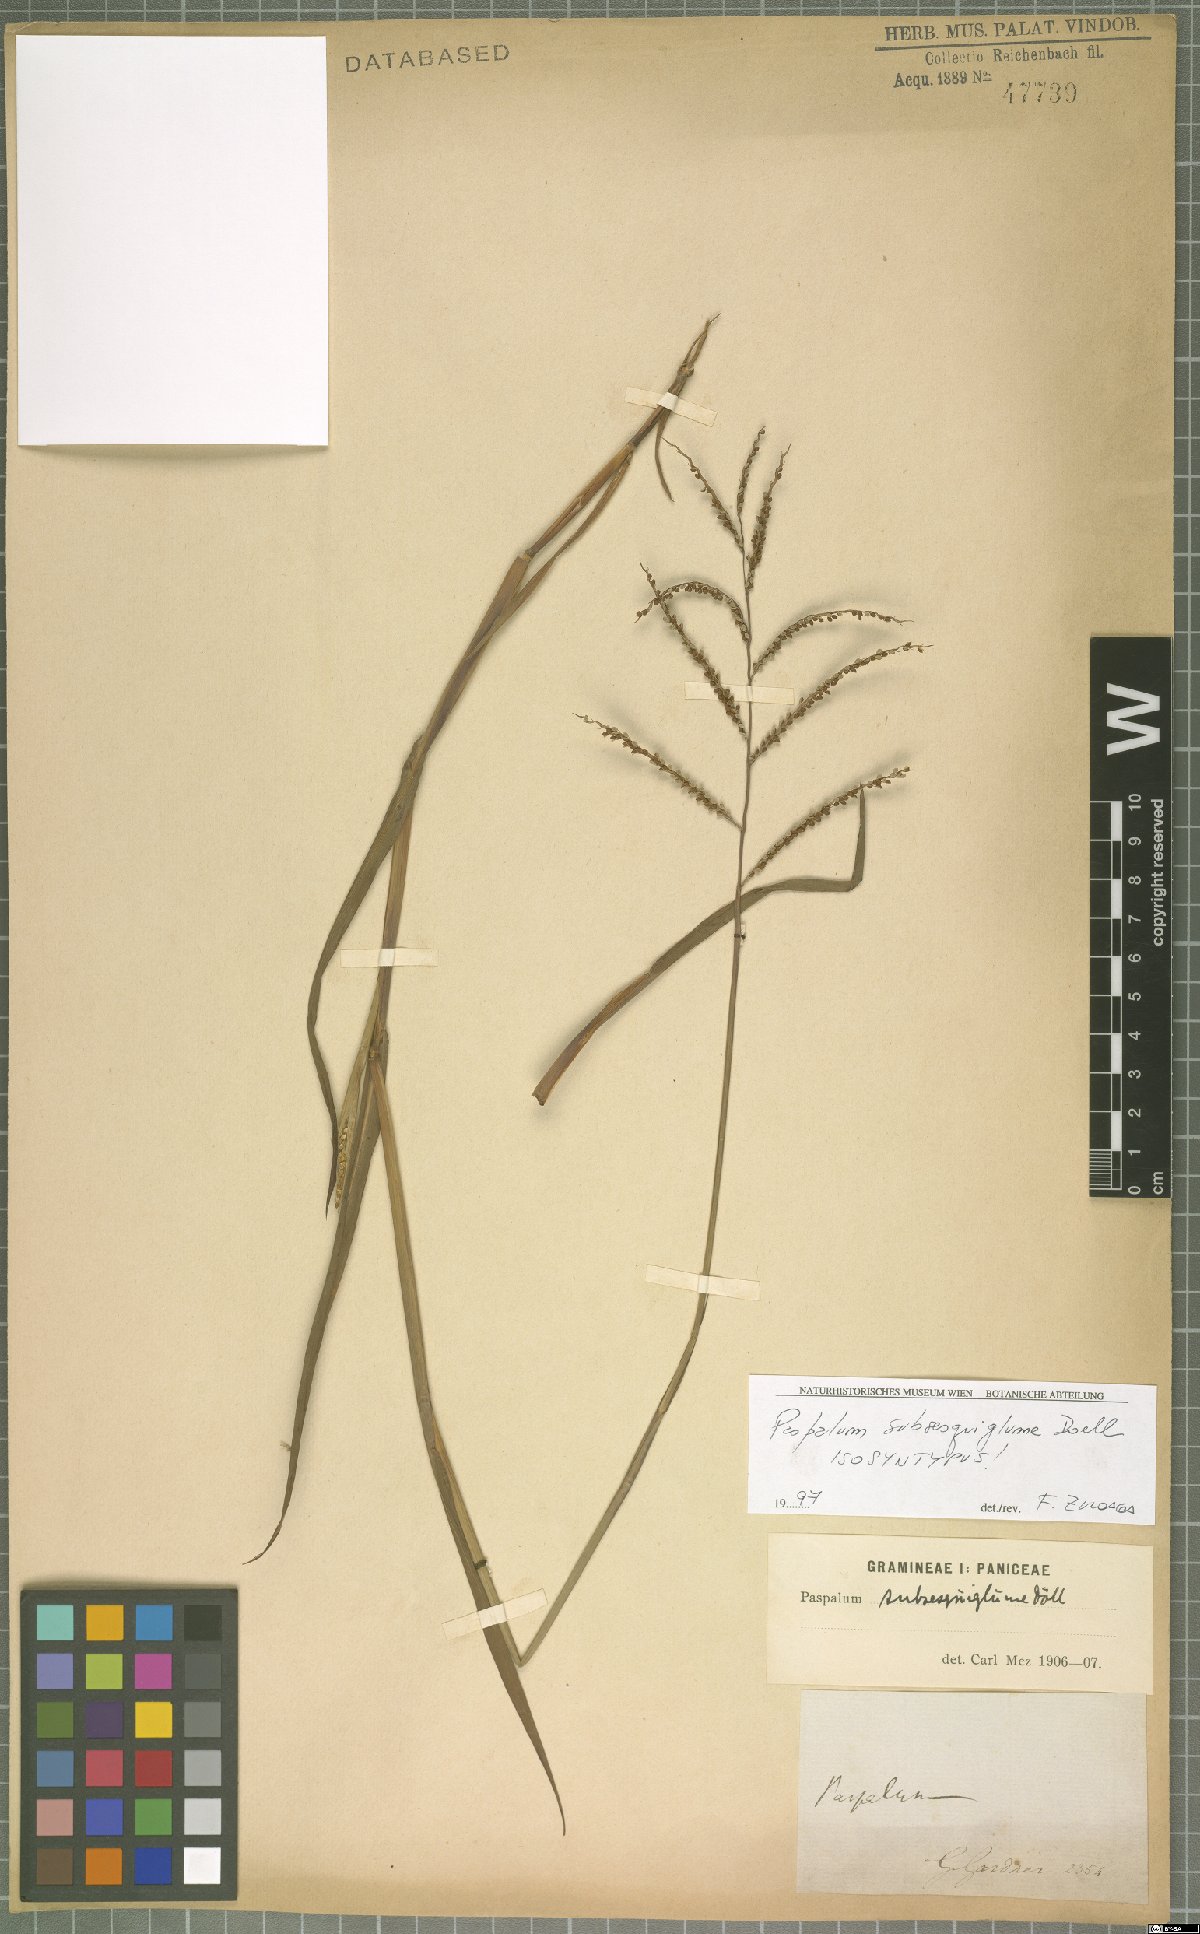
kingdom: Plantae
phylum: Tracheophyta
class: Liliopsida
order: Poales
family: Poaceae
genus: Paspalum
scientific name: Paspalum subsesquiglume
